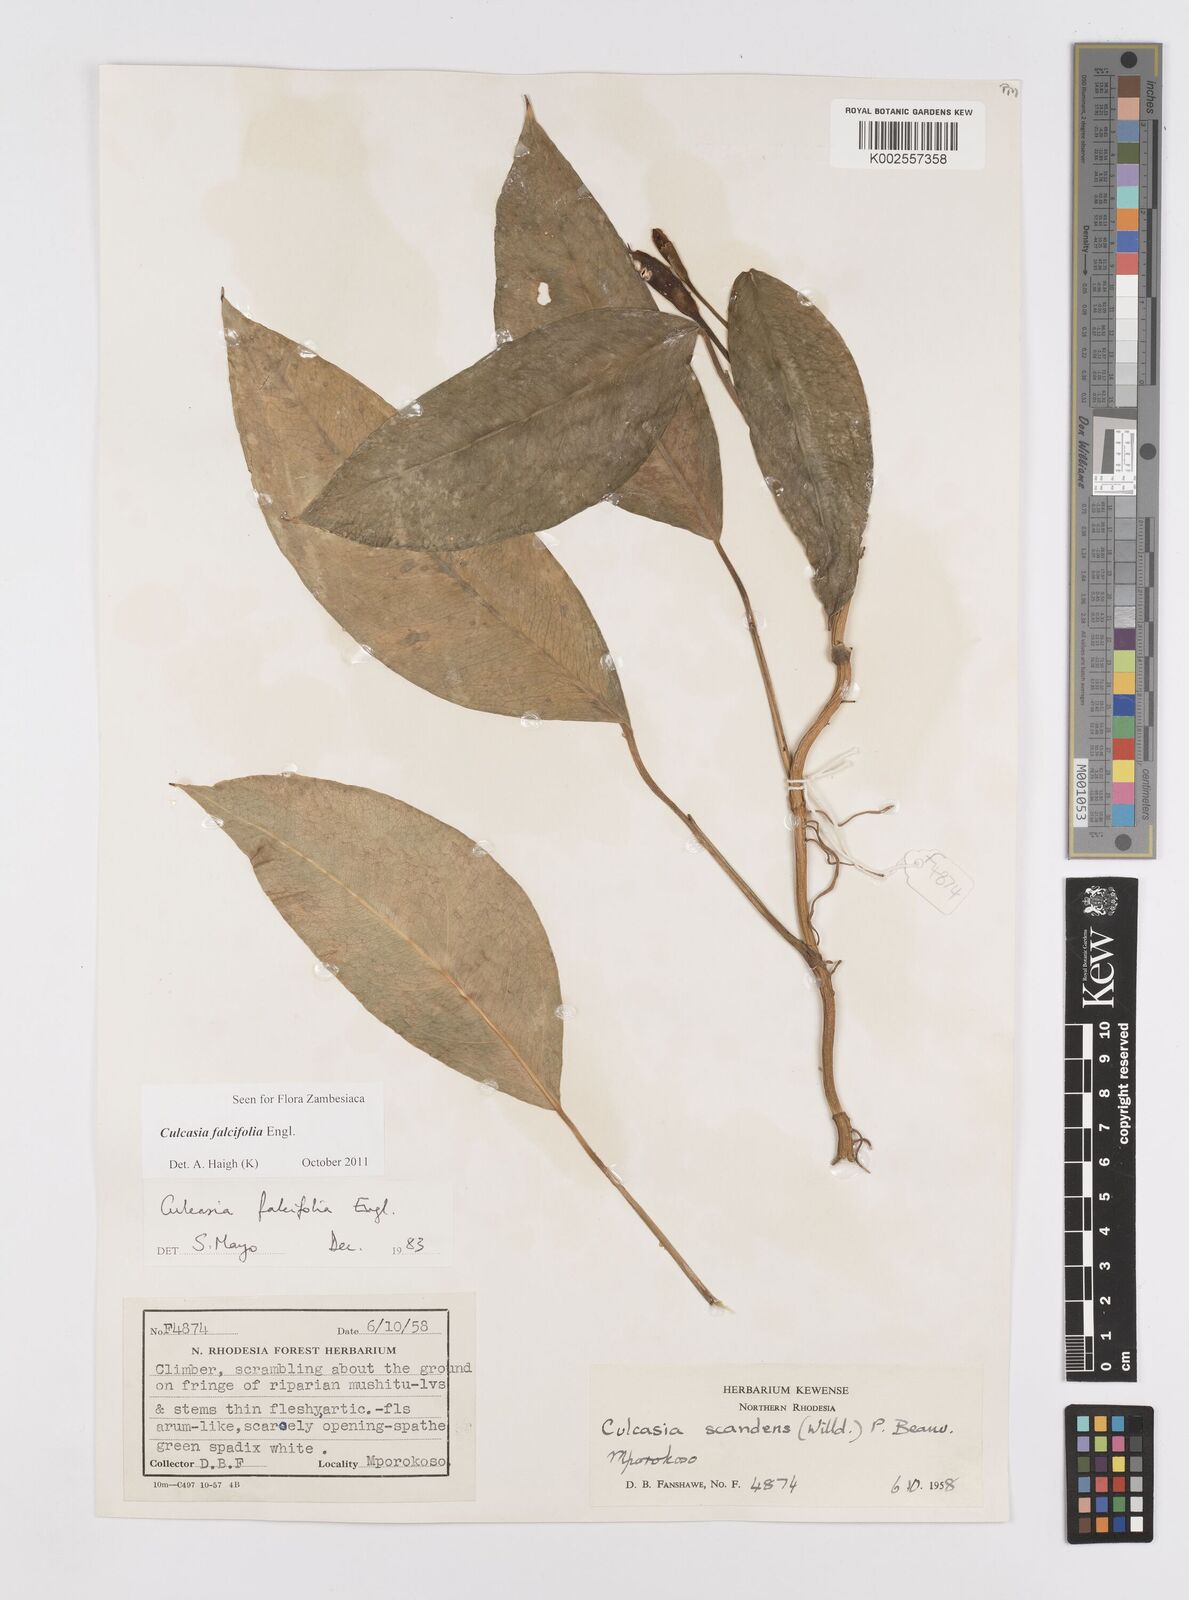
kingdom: Plantae
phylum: Tracheophyta
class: Liliopsida
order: Alismatales
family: Araceae
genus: Culcasia
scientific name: Culcasia falcifolia
